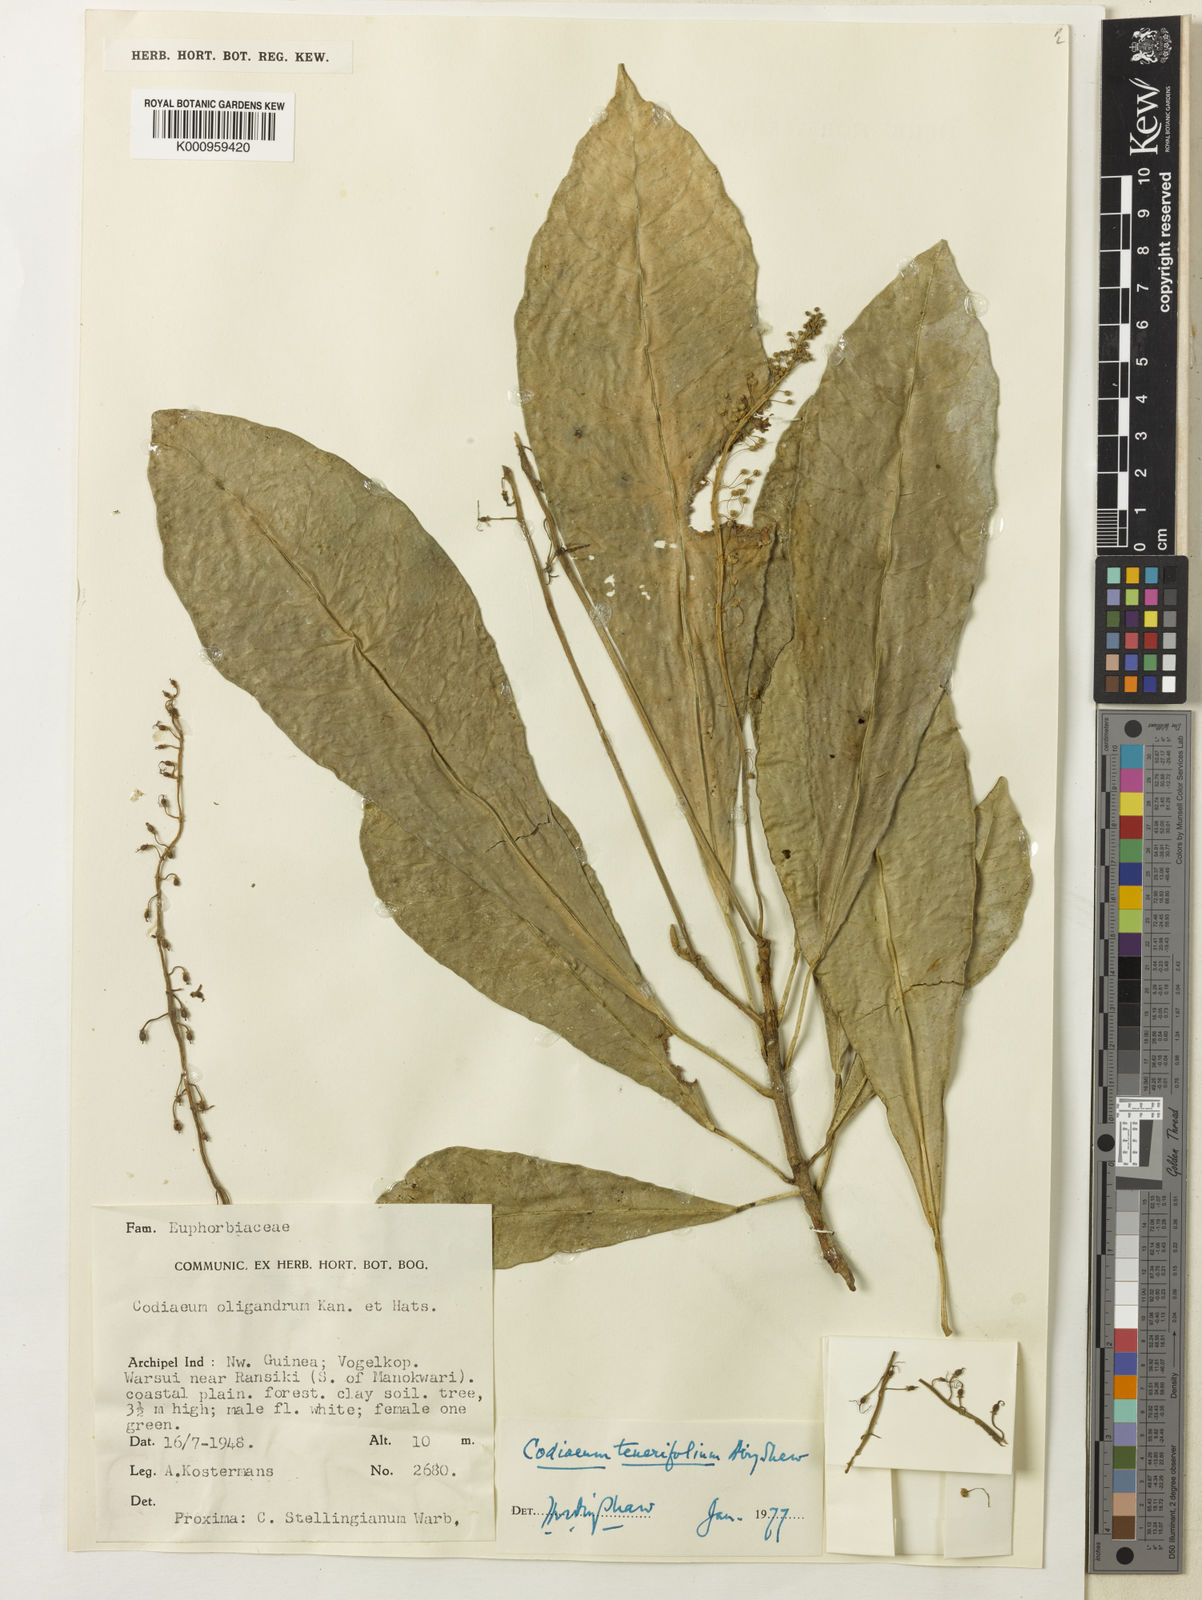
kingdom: Plantae
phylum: Tracheophyta
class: Magnoliopsida
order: Malpighiales
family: Euphorbiaceae
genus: Codiaeum
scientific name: Codiaeum tenerifolium
